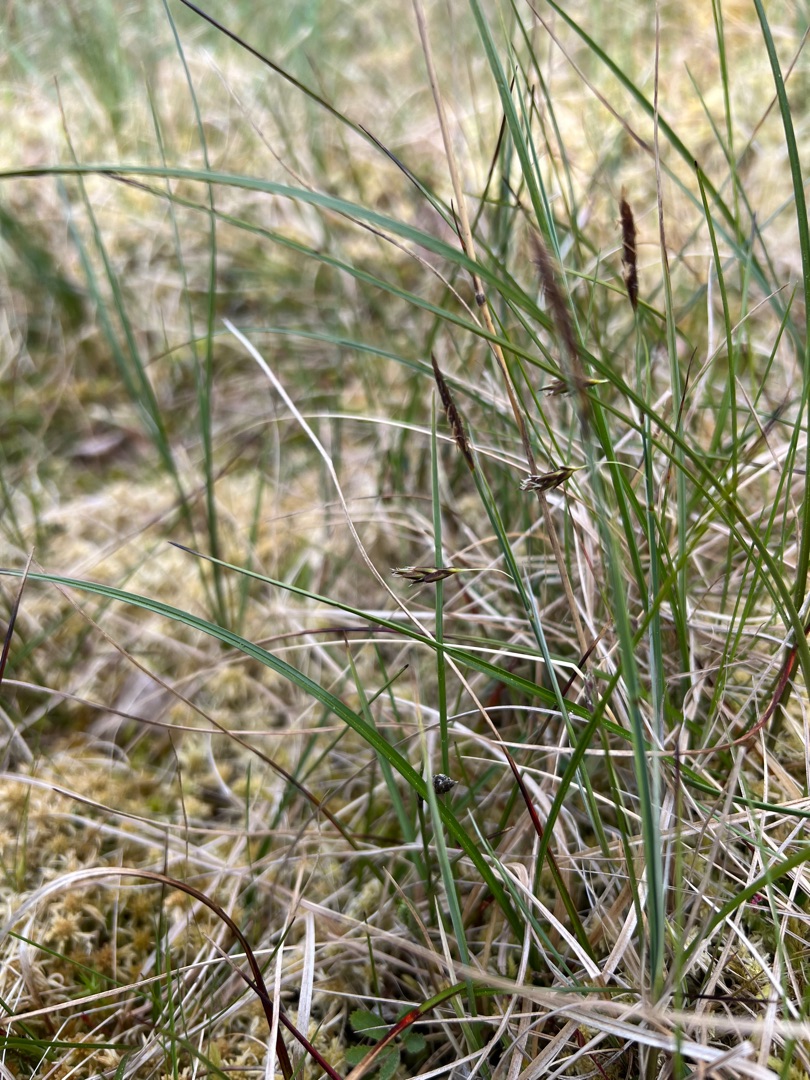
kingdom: Plantae
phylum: Tracheophyta
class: Liliopsida
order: Poales
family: Cyperaceae
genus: Carex
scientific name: Carex limosa
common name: Dynd-star
